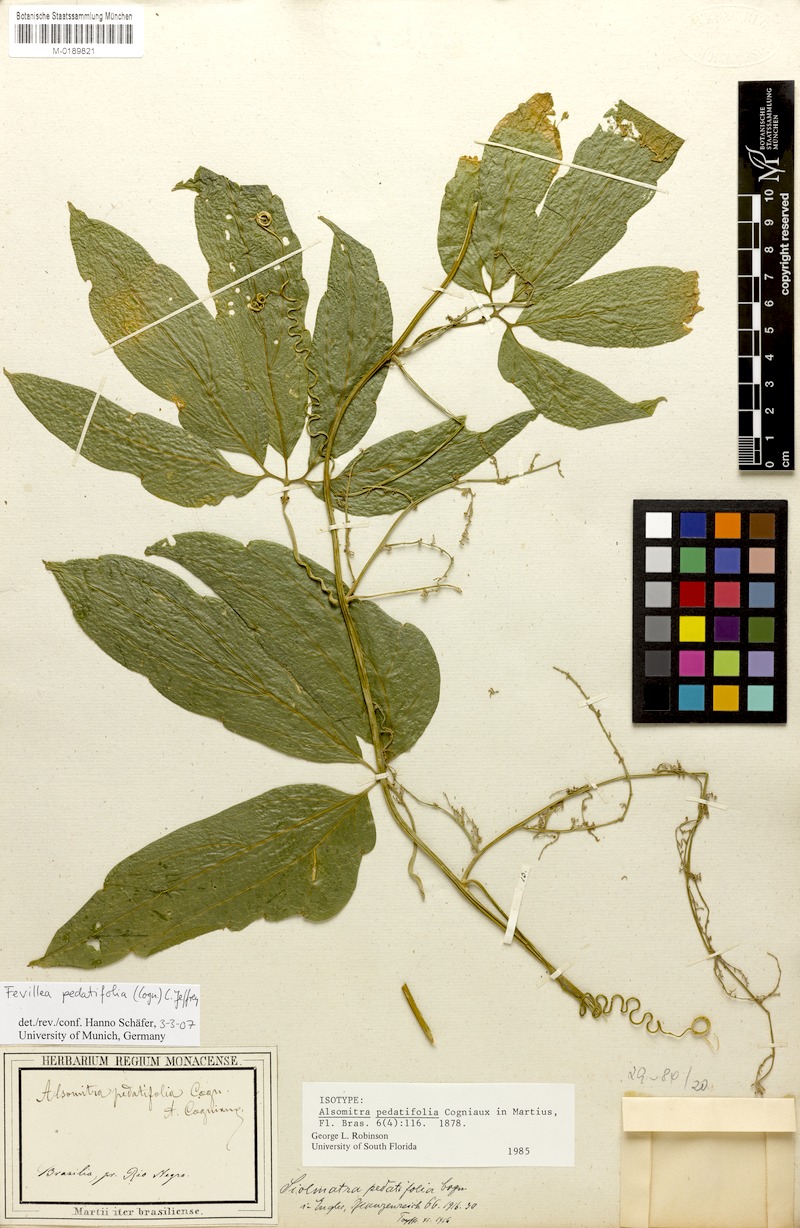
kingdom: Plantae
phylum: Tracheophyta
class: Magnoliopsida
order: Cucurbitales
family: Cucurbitaceae
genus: Fevillea
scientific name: Fevillea pedatifolia
